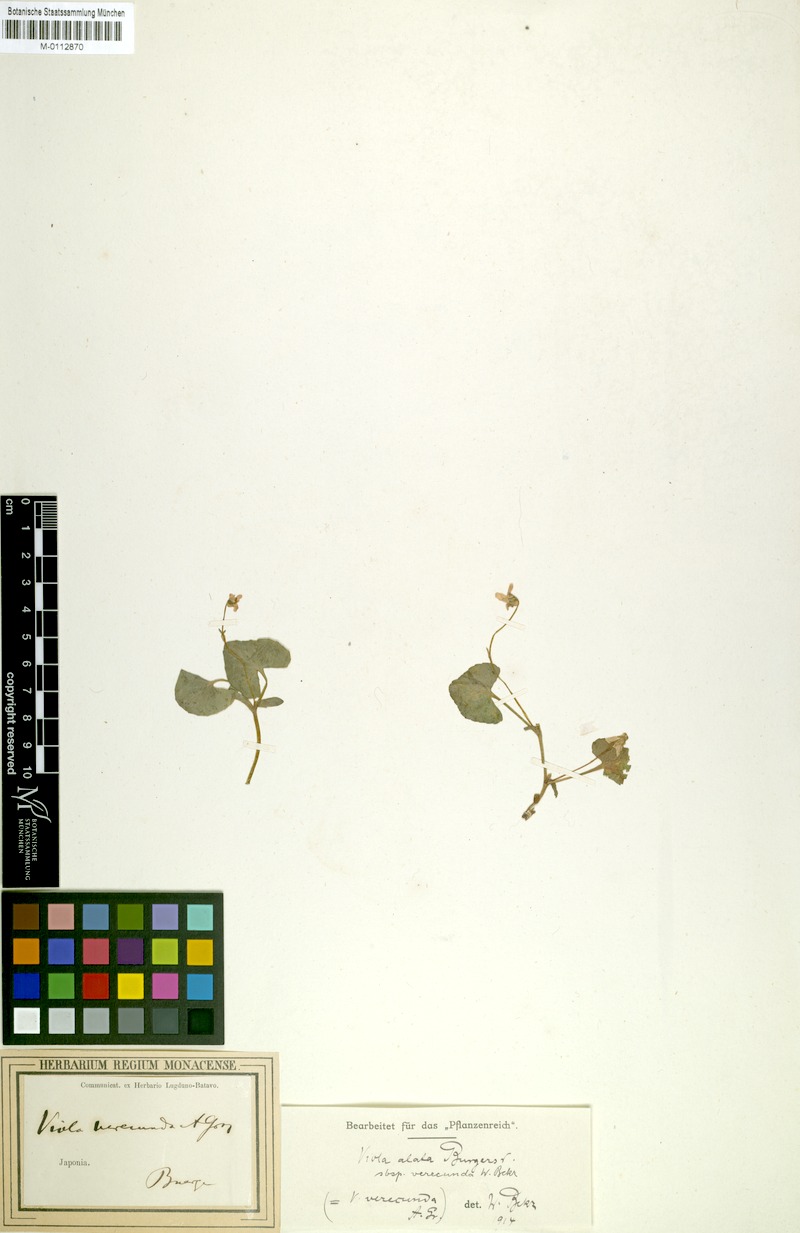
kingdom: Plantae
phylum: Tracheophyta
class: Magnoliopsida
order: Malpighiales
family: Violaceae
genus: Viola
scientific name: Viola hamiltoniana
